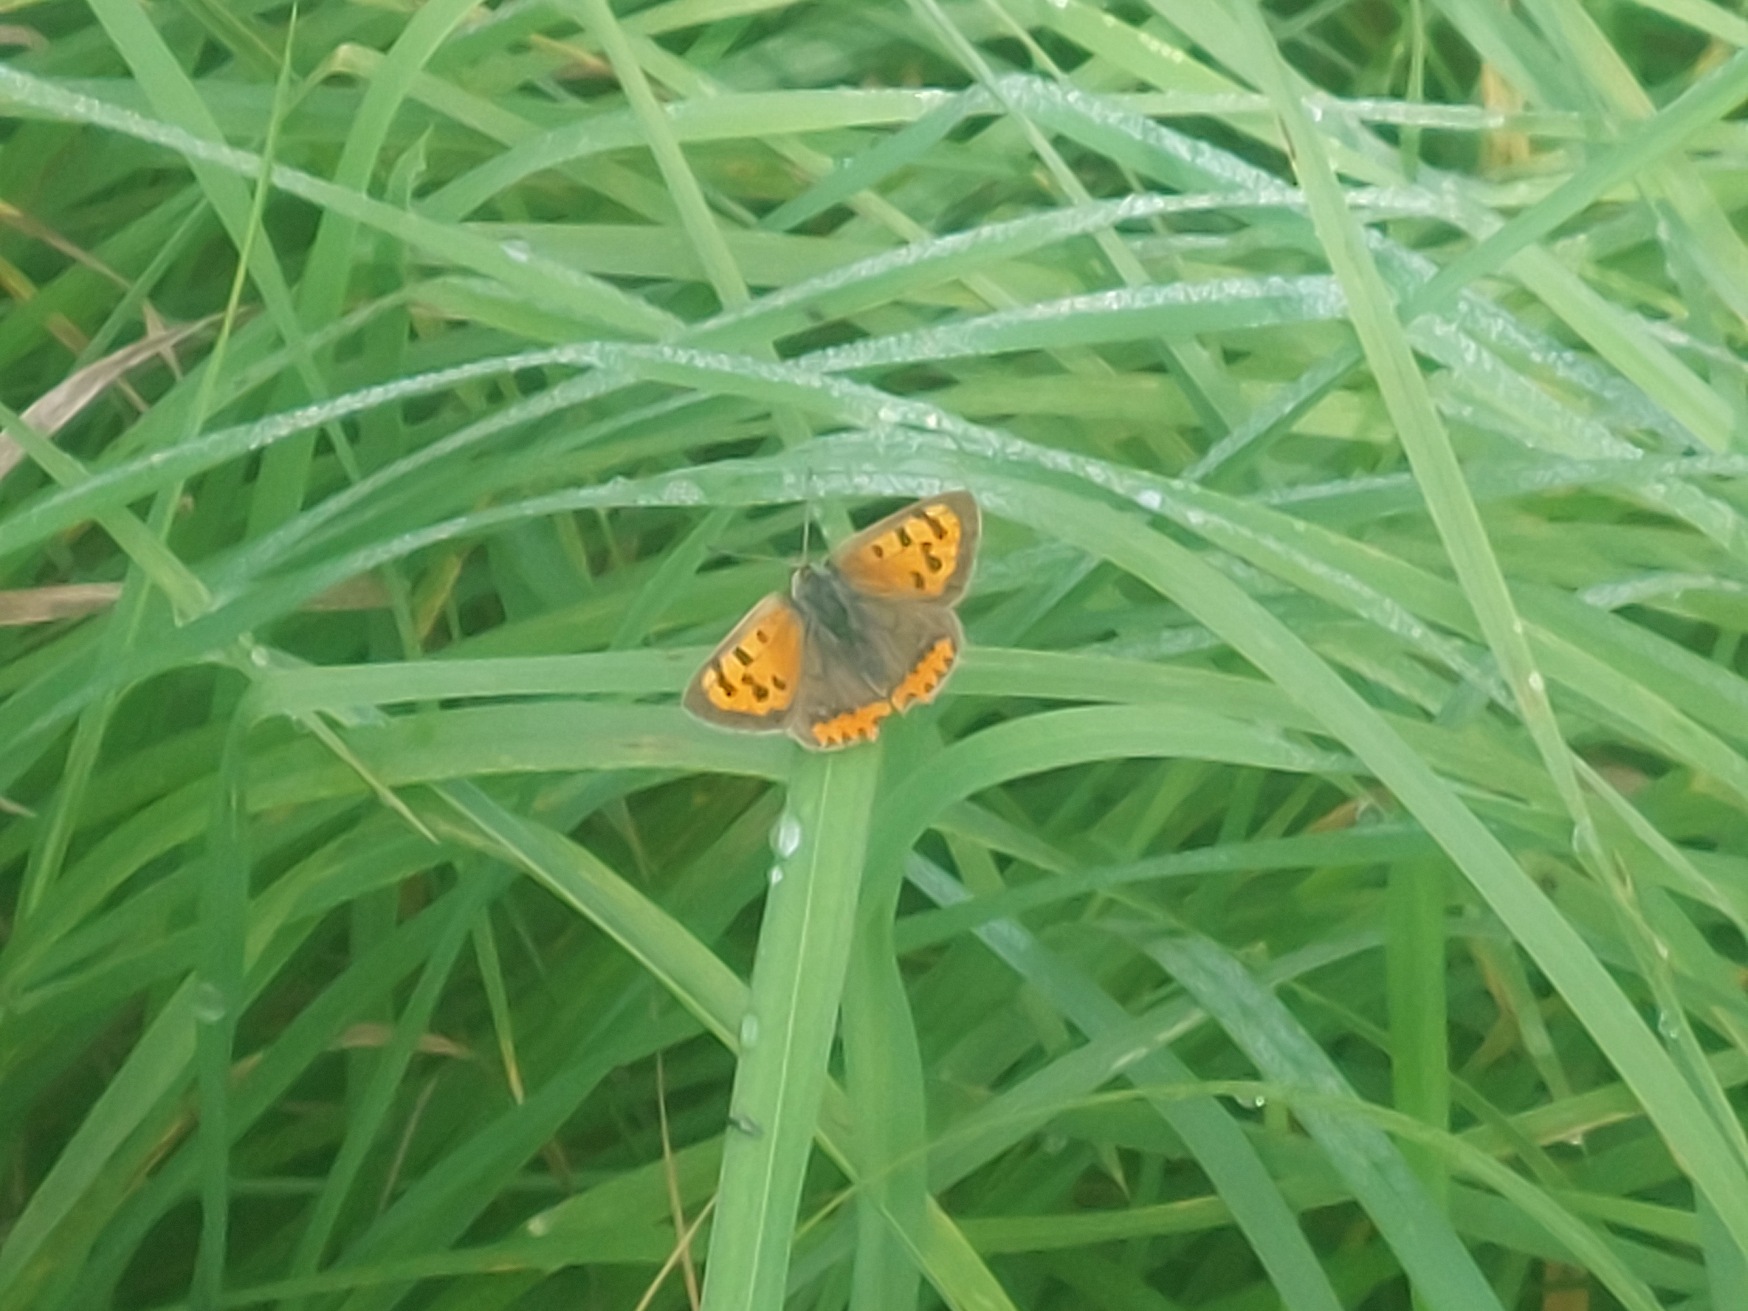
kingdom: Animalia
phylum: Arthropoda
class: Insecta
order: Lepidoptera
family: Lycaenidae
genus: Lycaena
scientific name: Lycaena phlaeas
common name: Lille ildfugl
